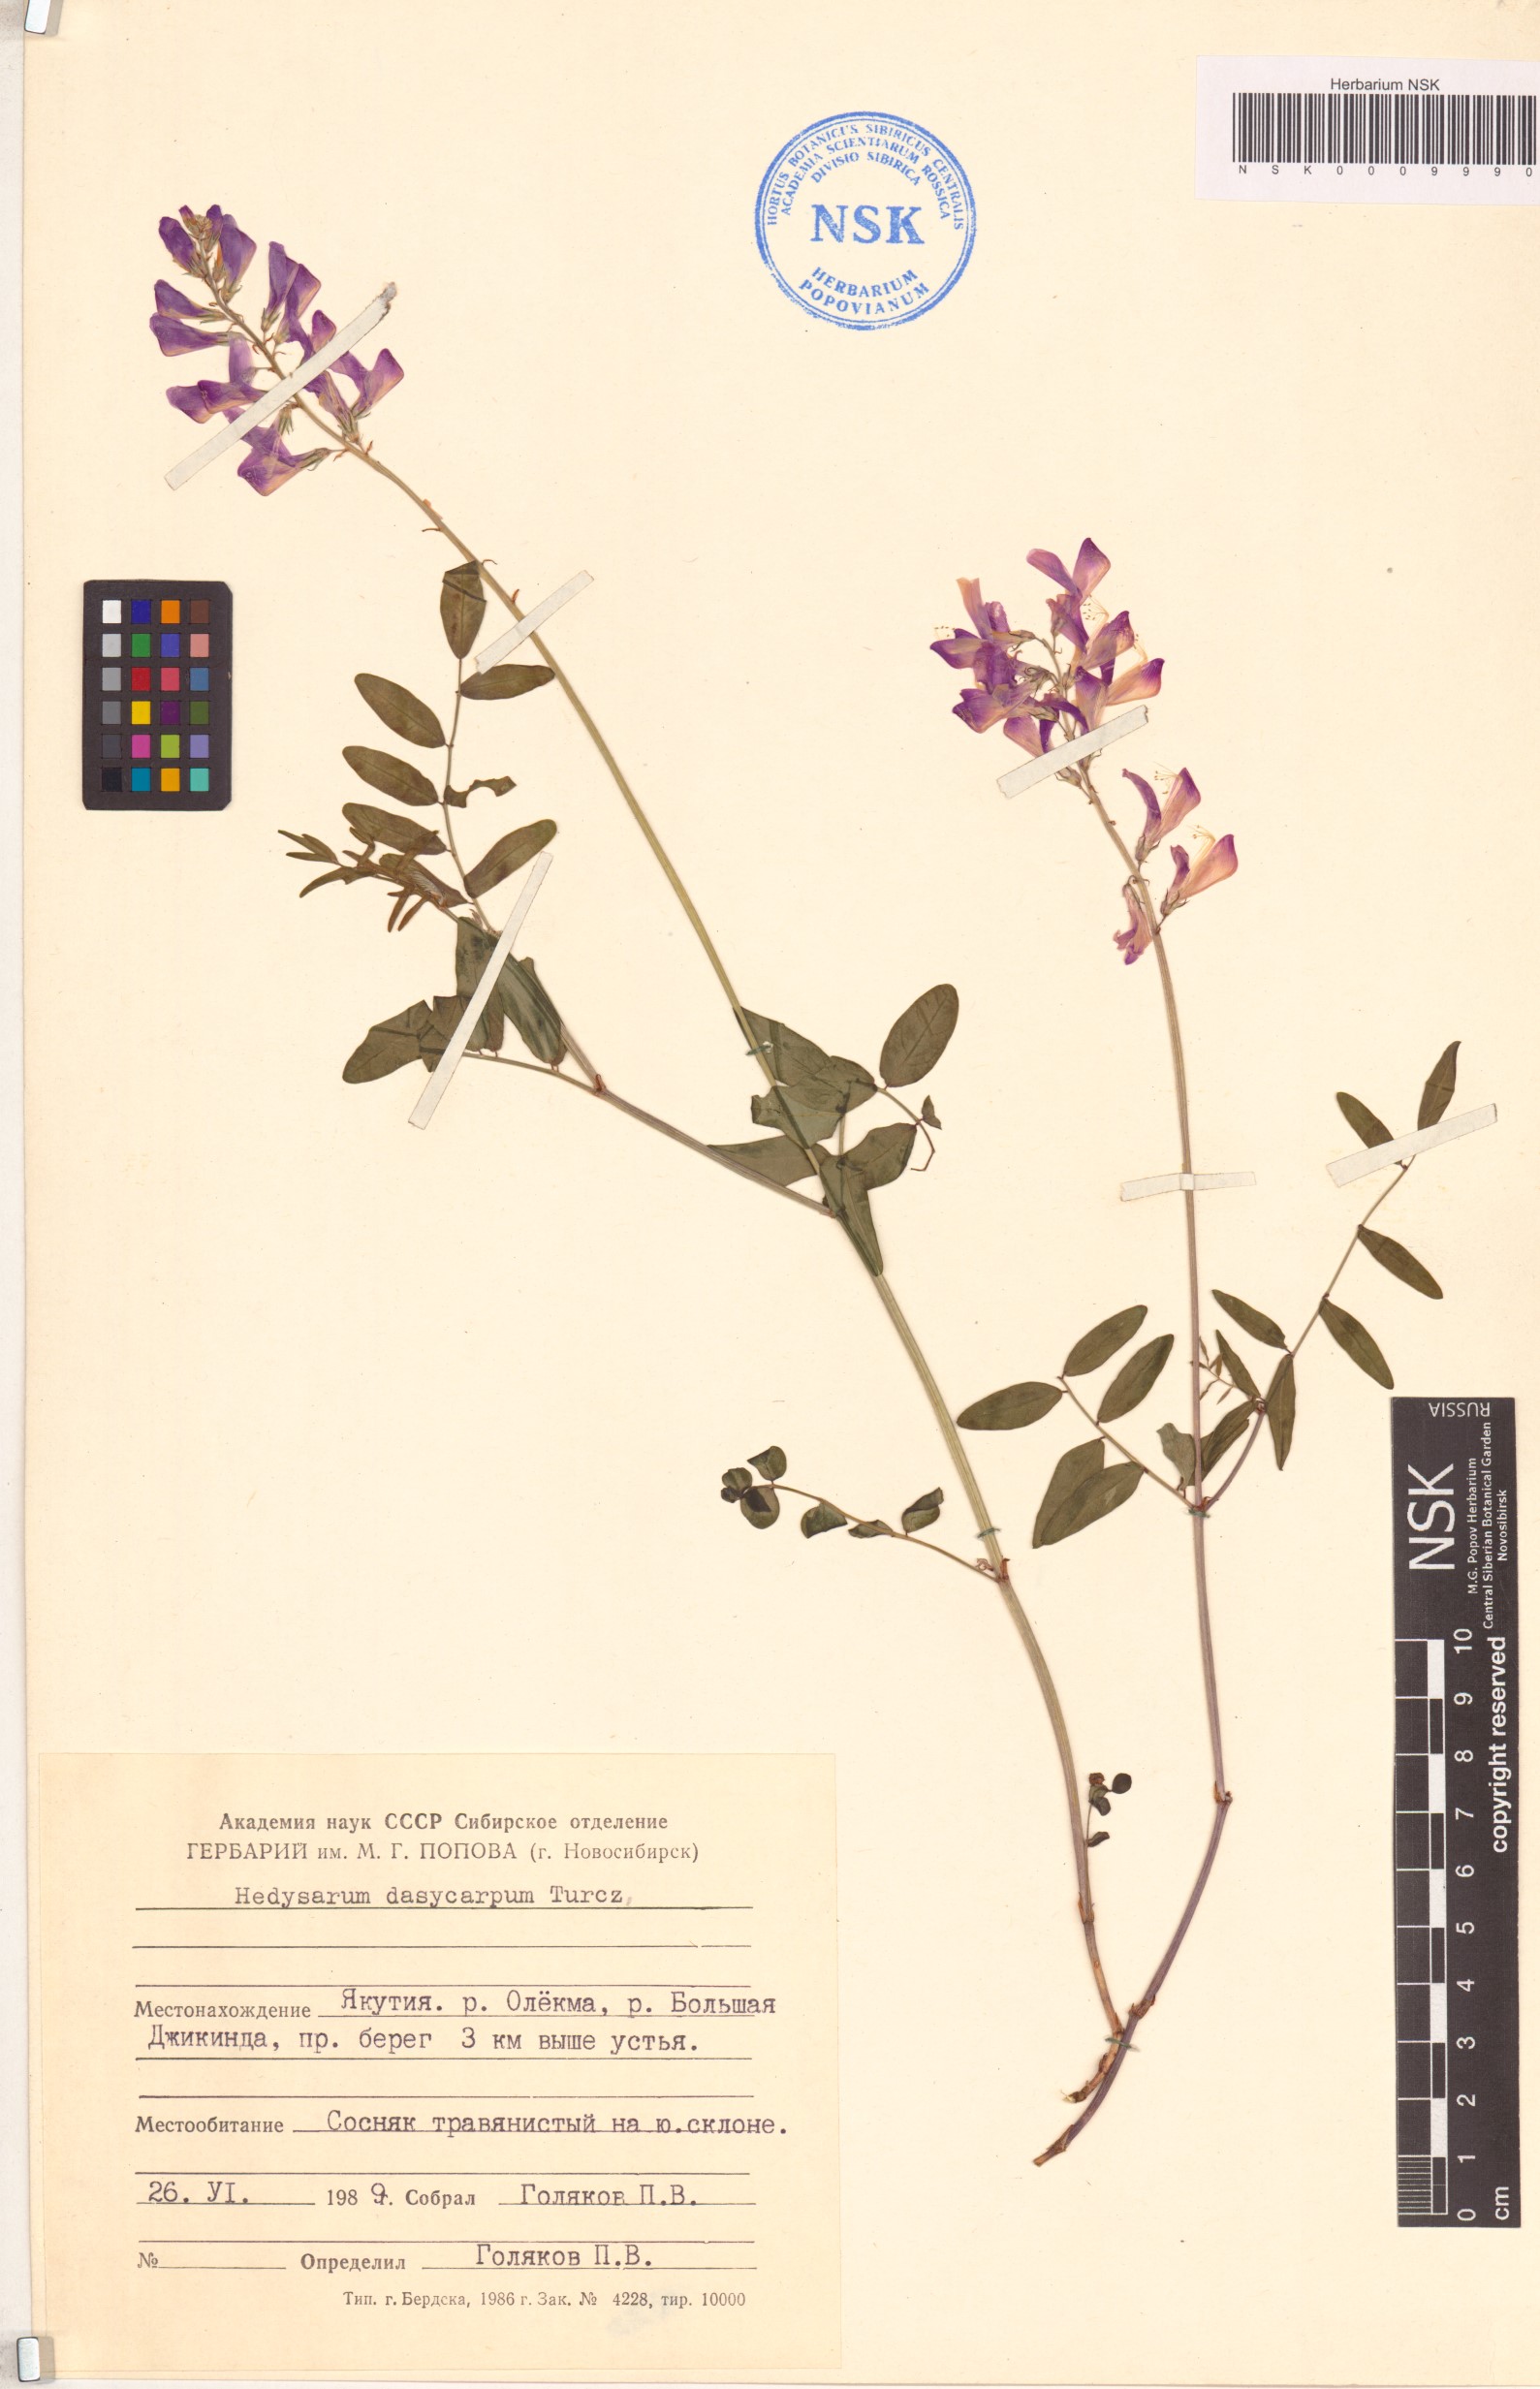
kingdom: Plantae
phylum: Tracheophyta
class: Magnoliopsida
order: Fabales
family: Fabaceae
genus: Hedysarum
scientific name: Hedysarum dasycarpum
